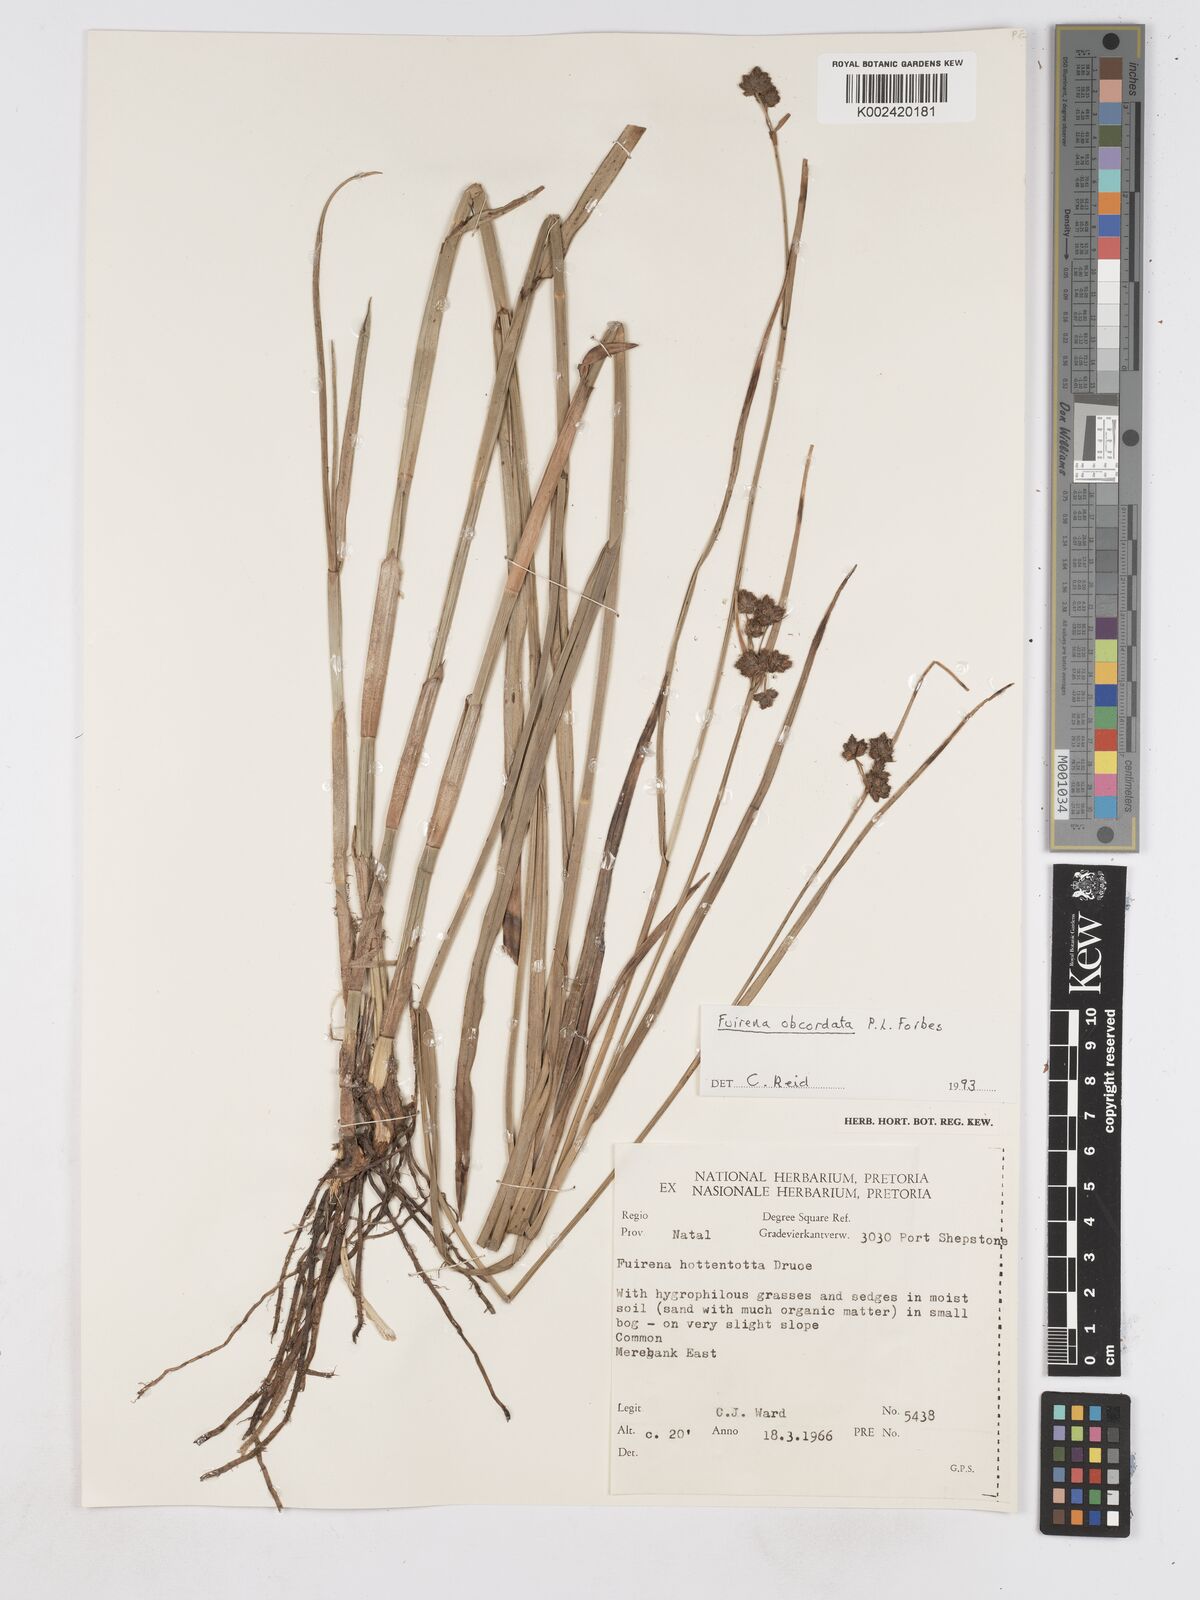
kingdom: Plantae
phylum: Tracheophyta
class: Liliopsida
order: Poales
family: Cyperaceae
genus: Fuirena
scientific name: Fuirena obcordata
